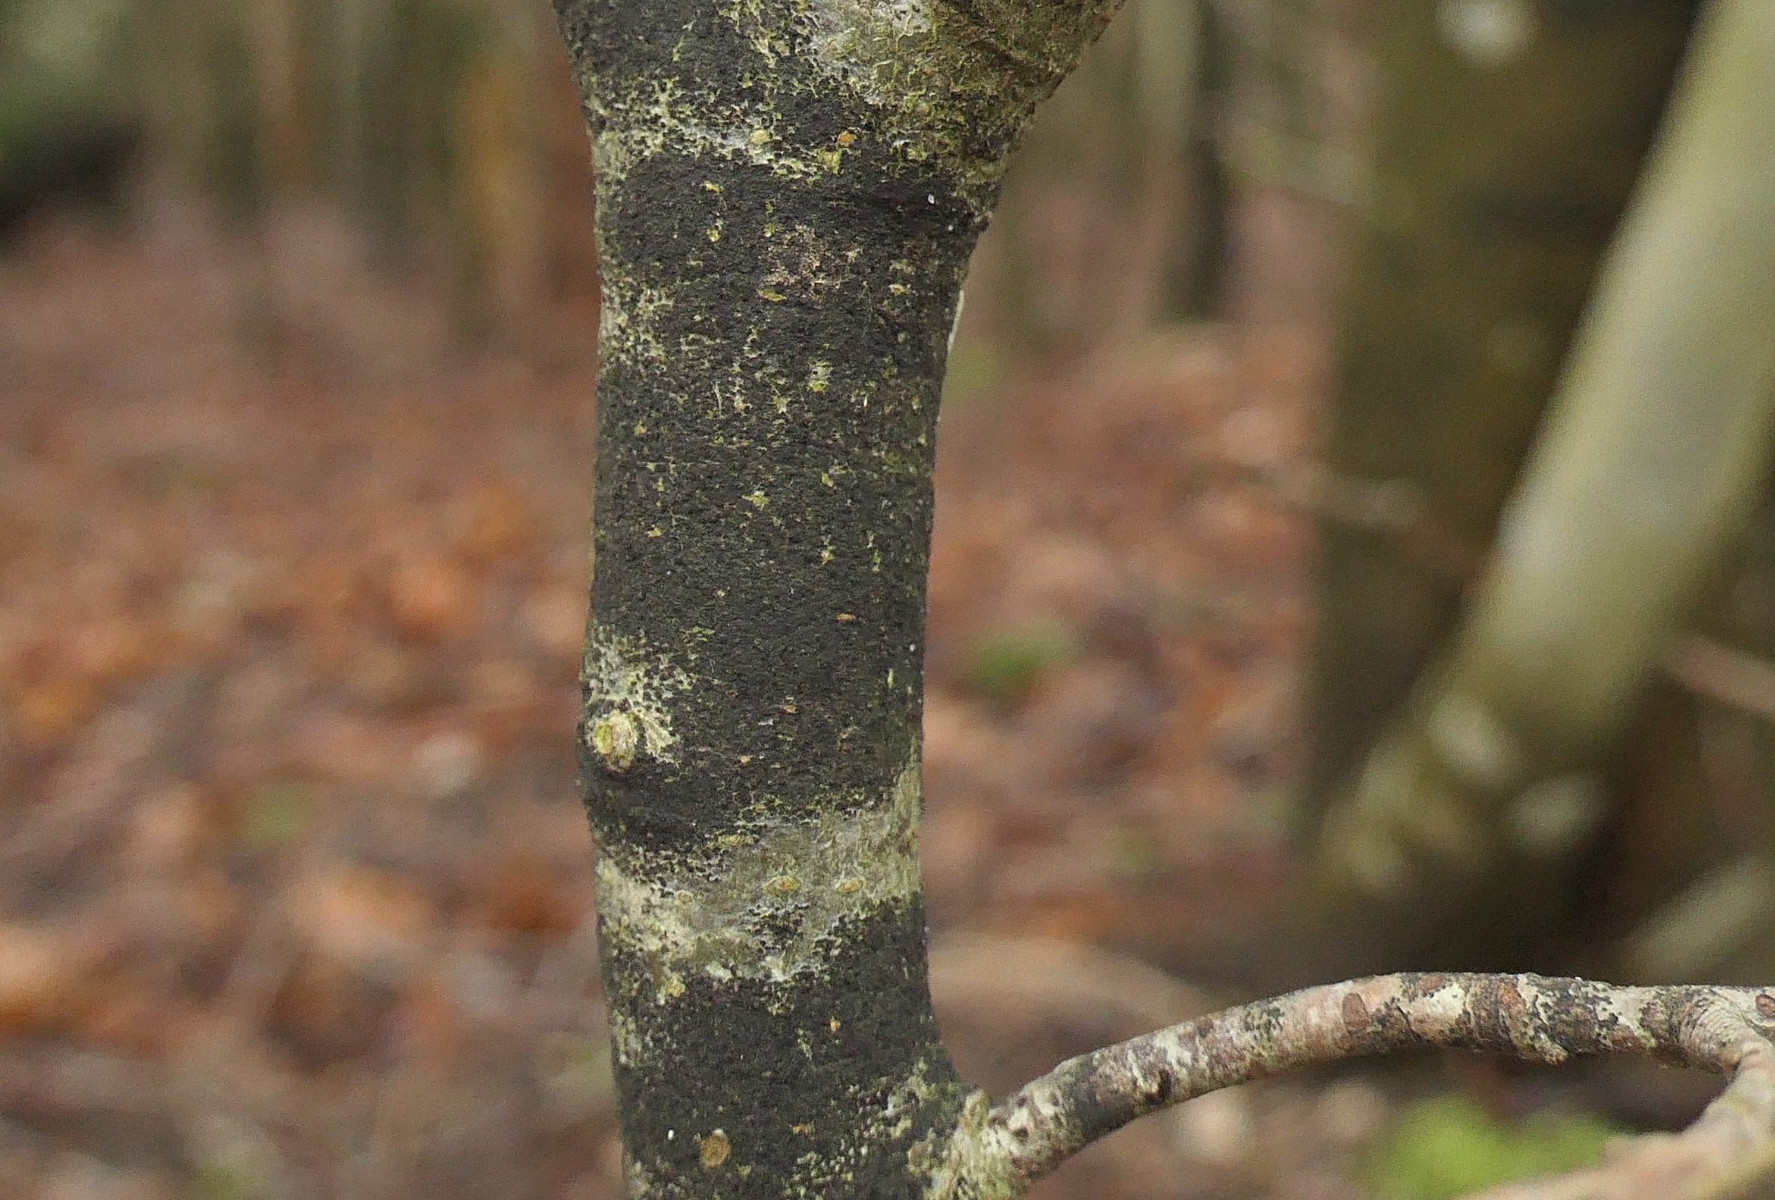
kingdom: Fungi
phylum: Ascomycota
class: Leotiomycetes
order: Rhytismatales
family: Ascodichaenaceae
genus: Ascodichaena
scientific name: Ascodichaena rugosa
